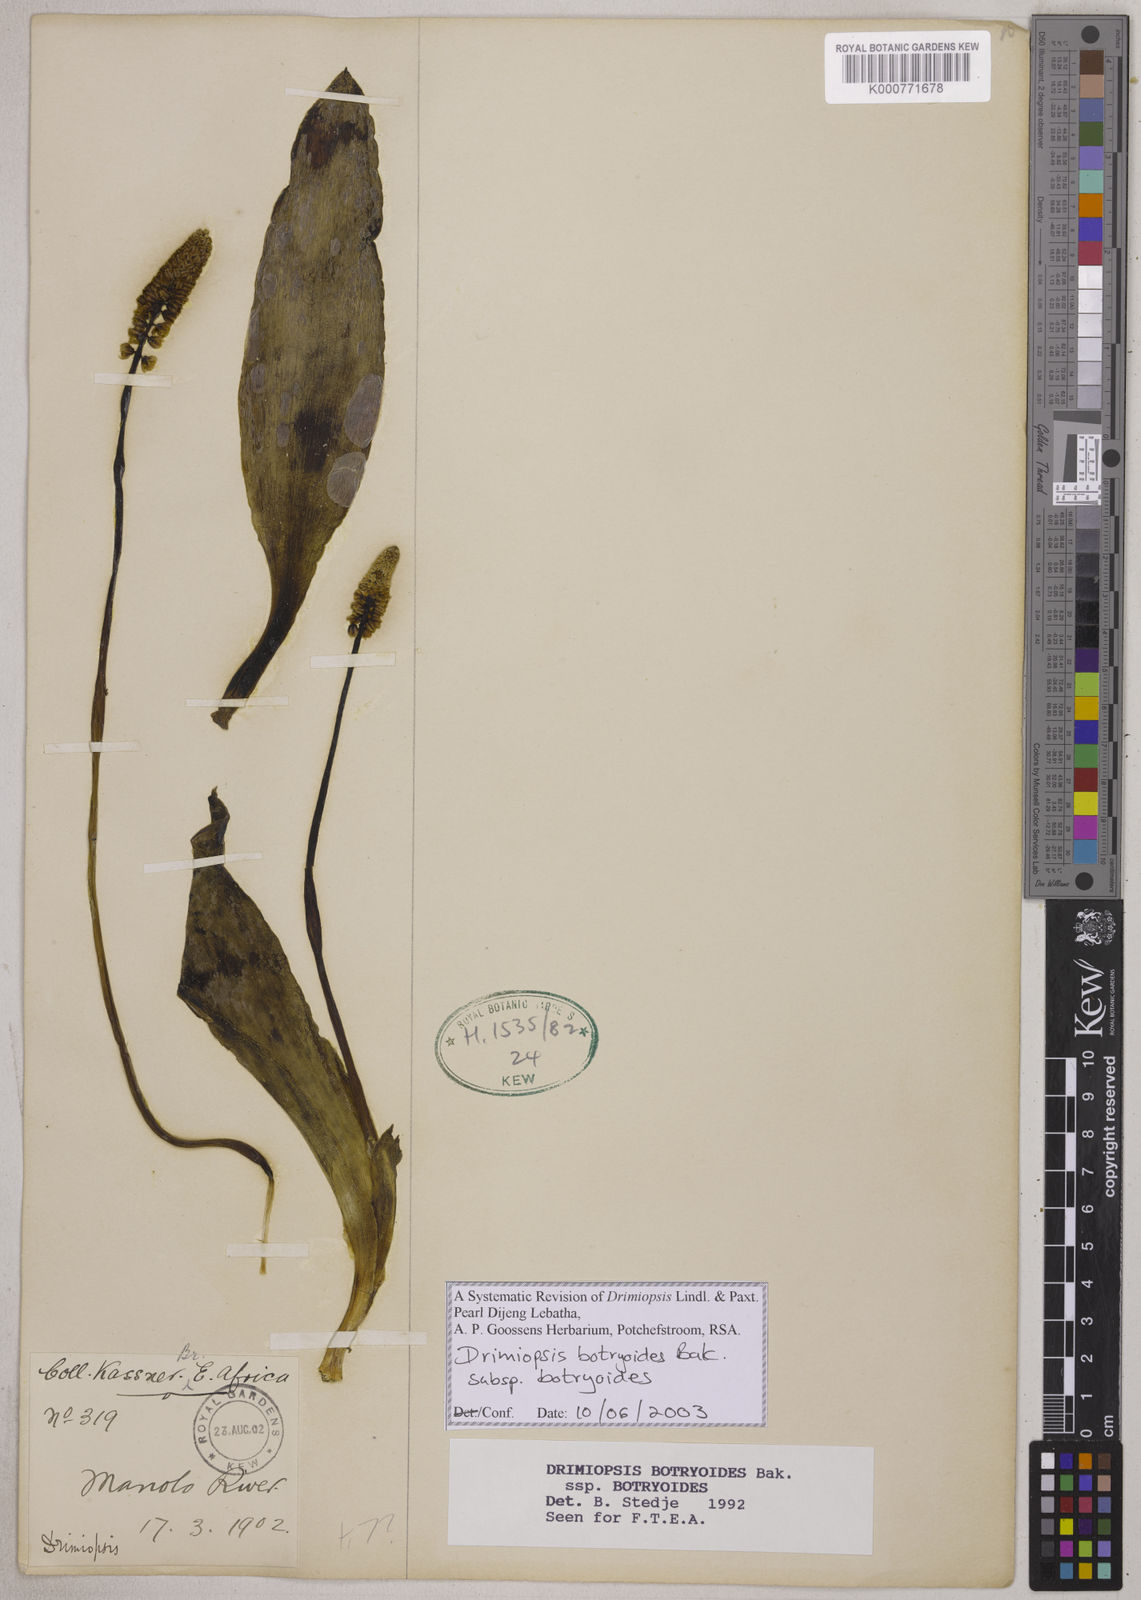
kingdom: Plantae
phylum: Tracheophyta
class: Liliopsida
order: Asparagales
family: Asparagaceae
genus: Drimiopsis
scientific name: Drimiopsis botryoides
